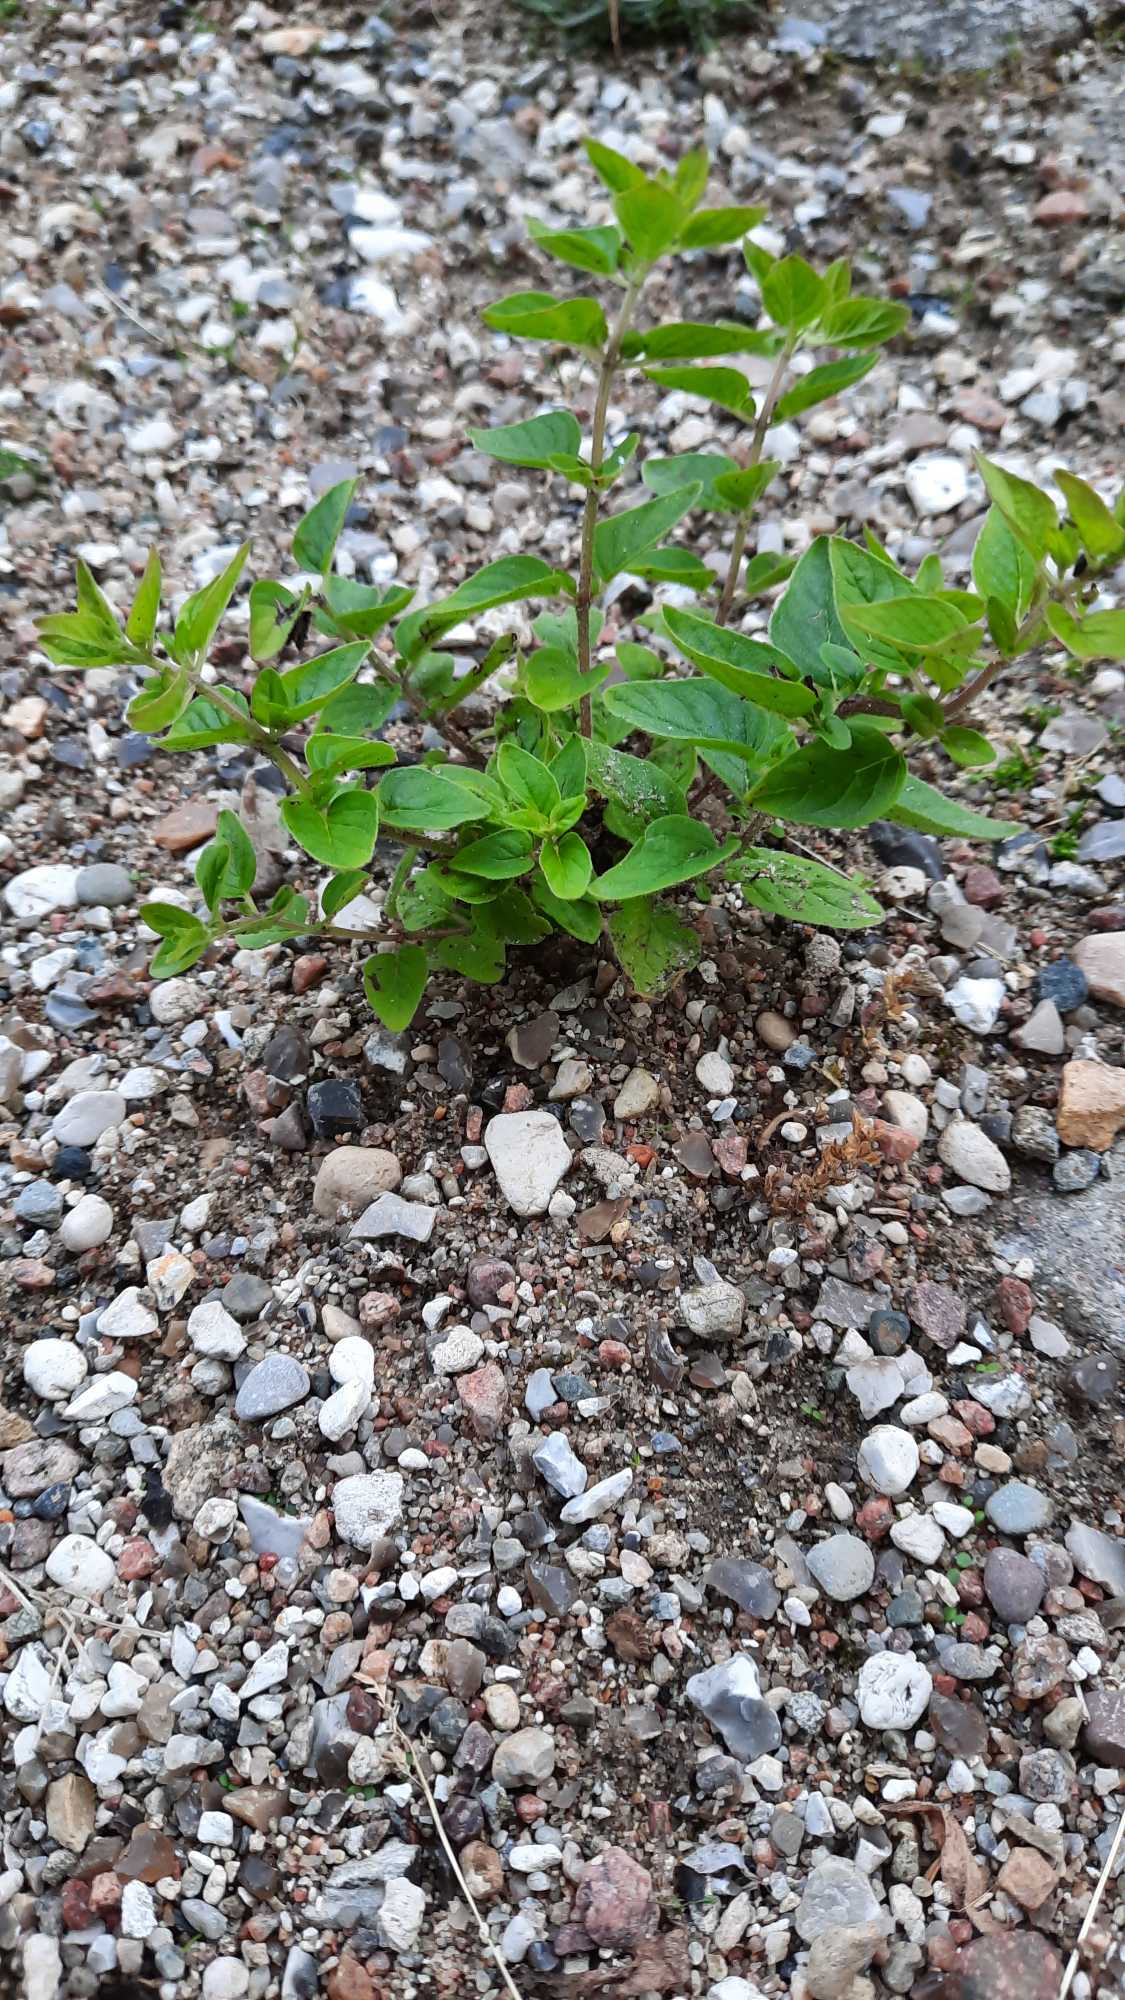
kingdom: Plantae
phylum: Tracheophyta
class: Magnoliopsida
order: Lamiales
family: Lamiaceae
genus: Origanum
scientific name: Origanum vulgare
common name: Merian
